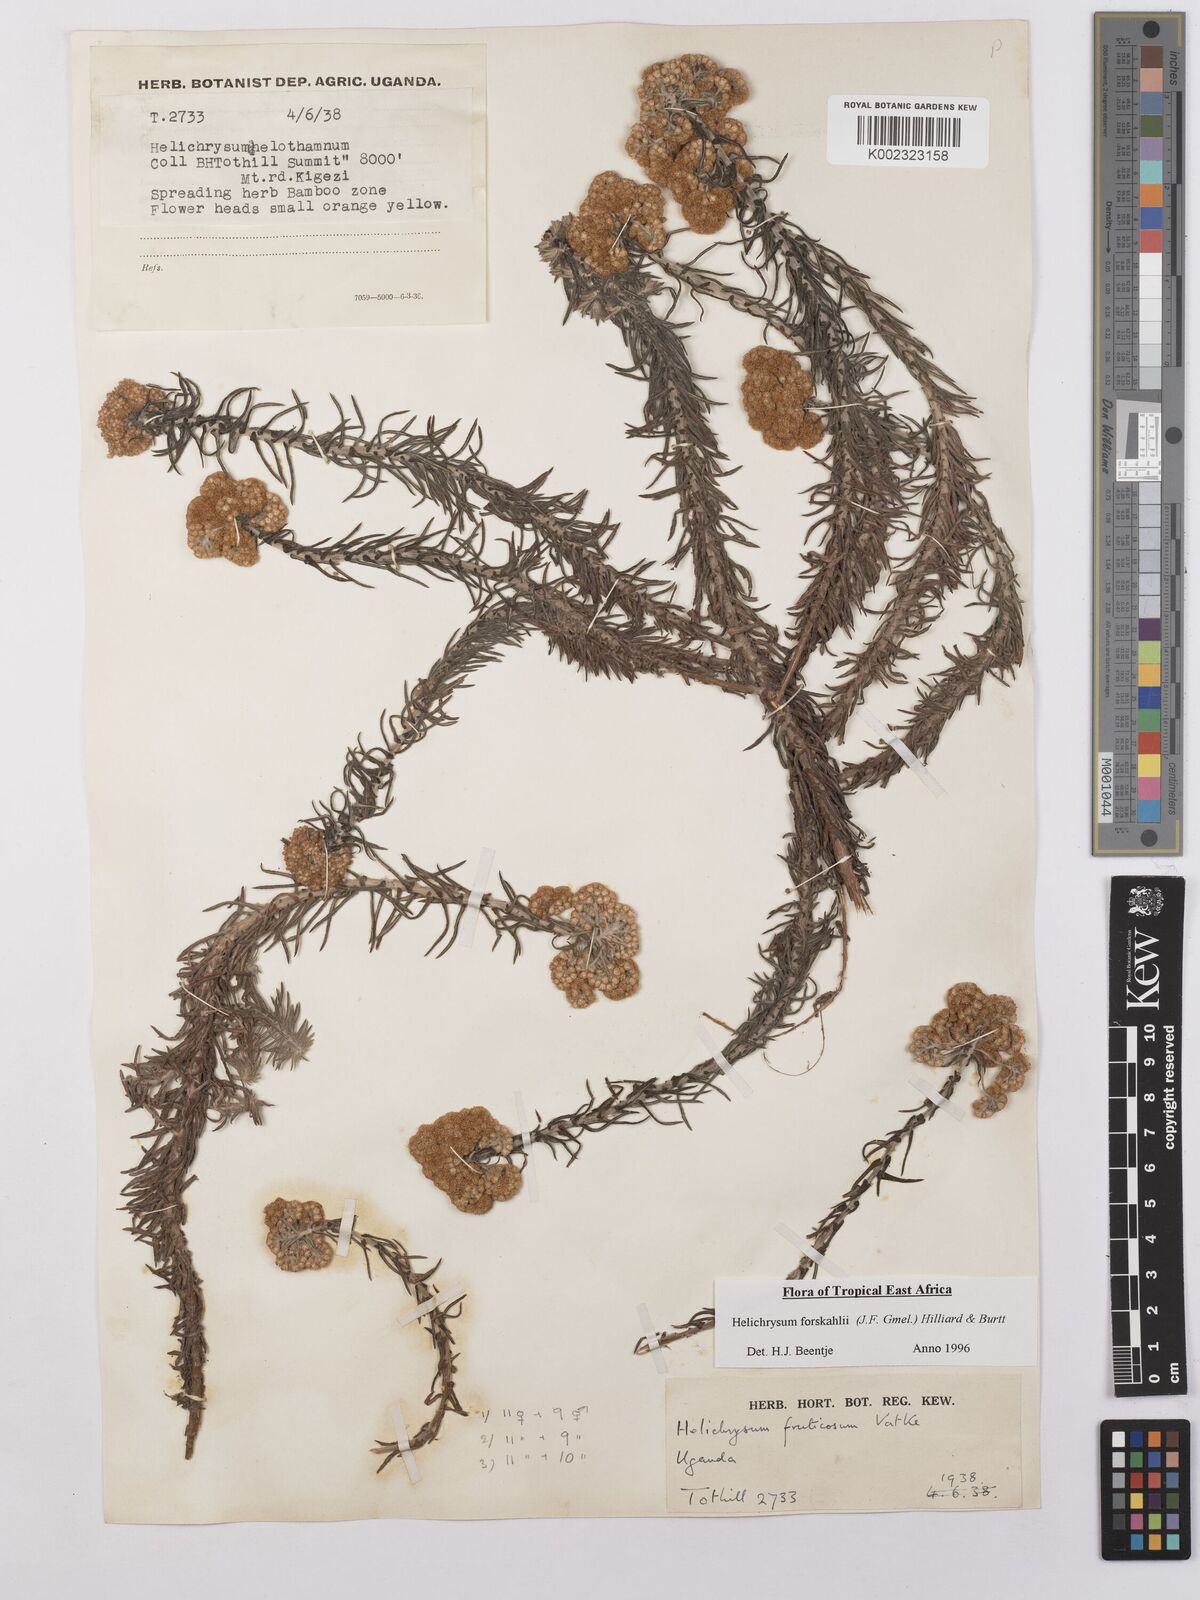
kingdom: Plantae
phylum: Tracheophyta
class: Magnoliopsida
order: Asterales
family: Asteraceae
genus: Helichrysum
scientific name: Helichrysum forskahlii
